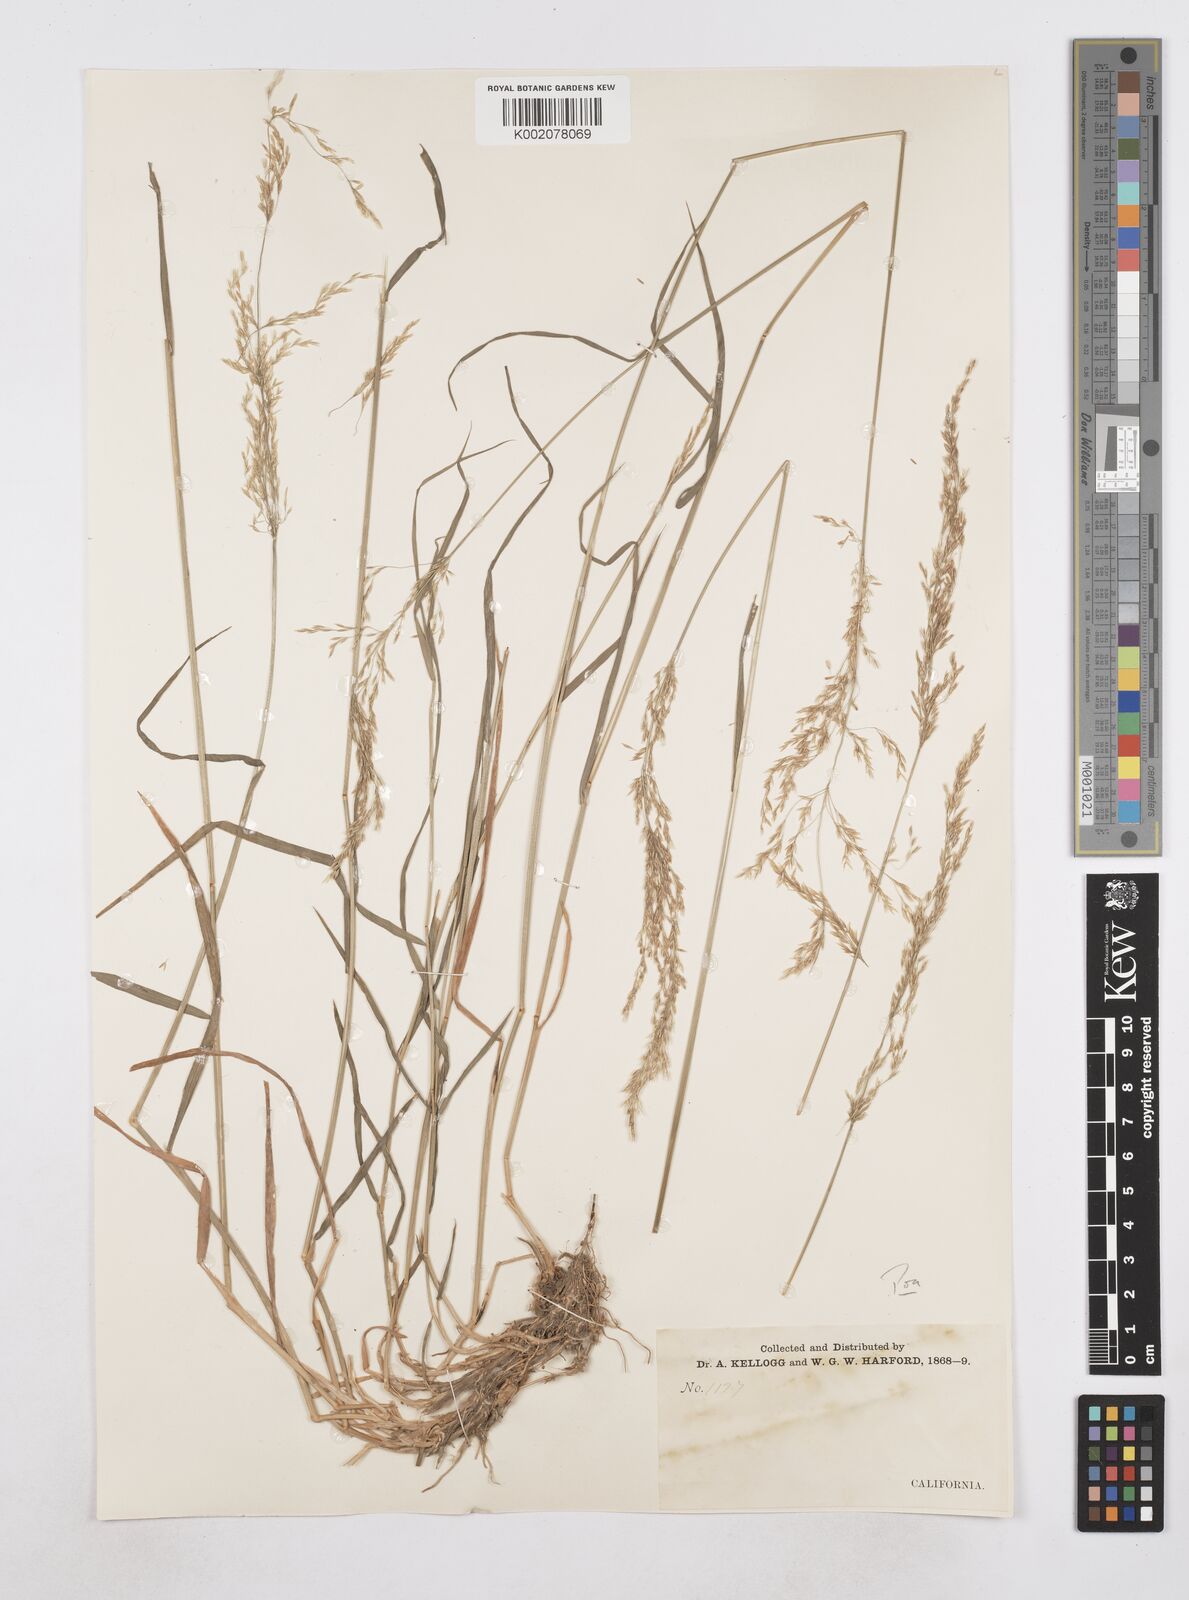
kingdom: Plantae
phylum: Tracheophyta
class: Liliopsida
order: Poales
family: Poaceae
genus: Poa
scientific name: Poa
